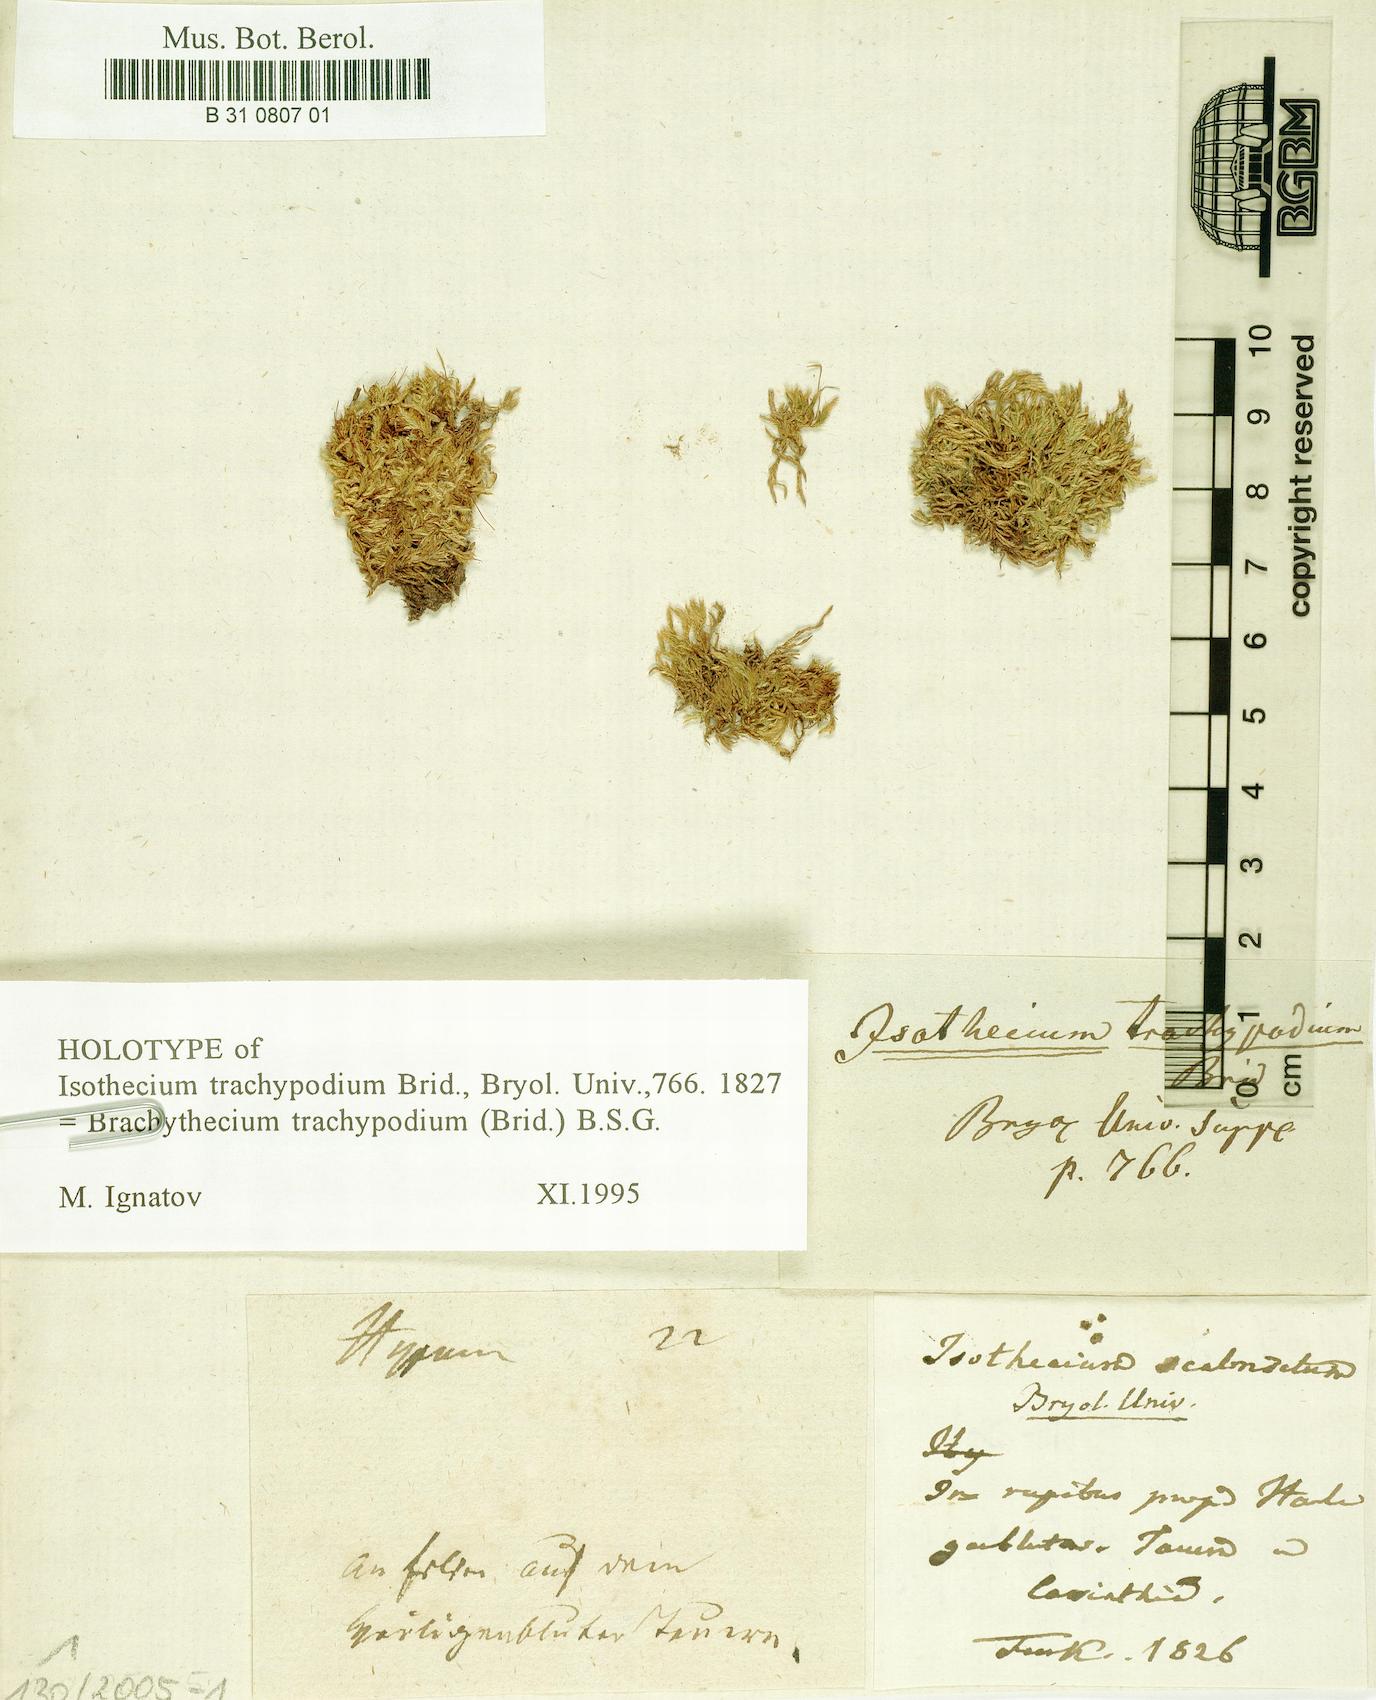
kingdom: Plantae
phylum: Bryophyta
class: Bryopsida
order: Hypnales
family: Brachytheciaceae
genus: Brachytheciastrum
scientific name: Brachytheciastrum trachypodium
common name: Lawers feather-moss
